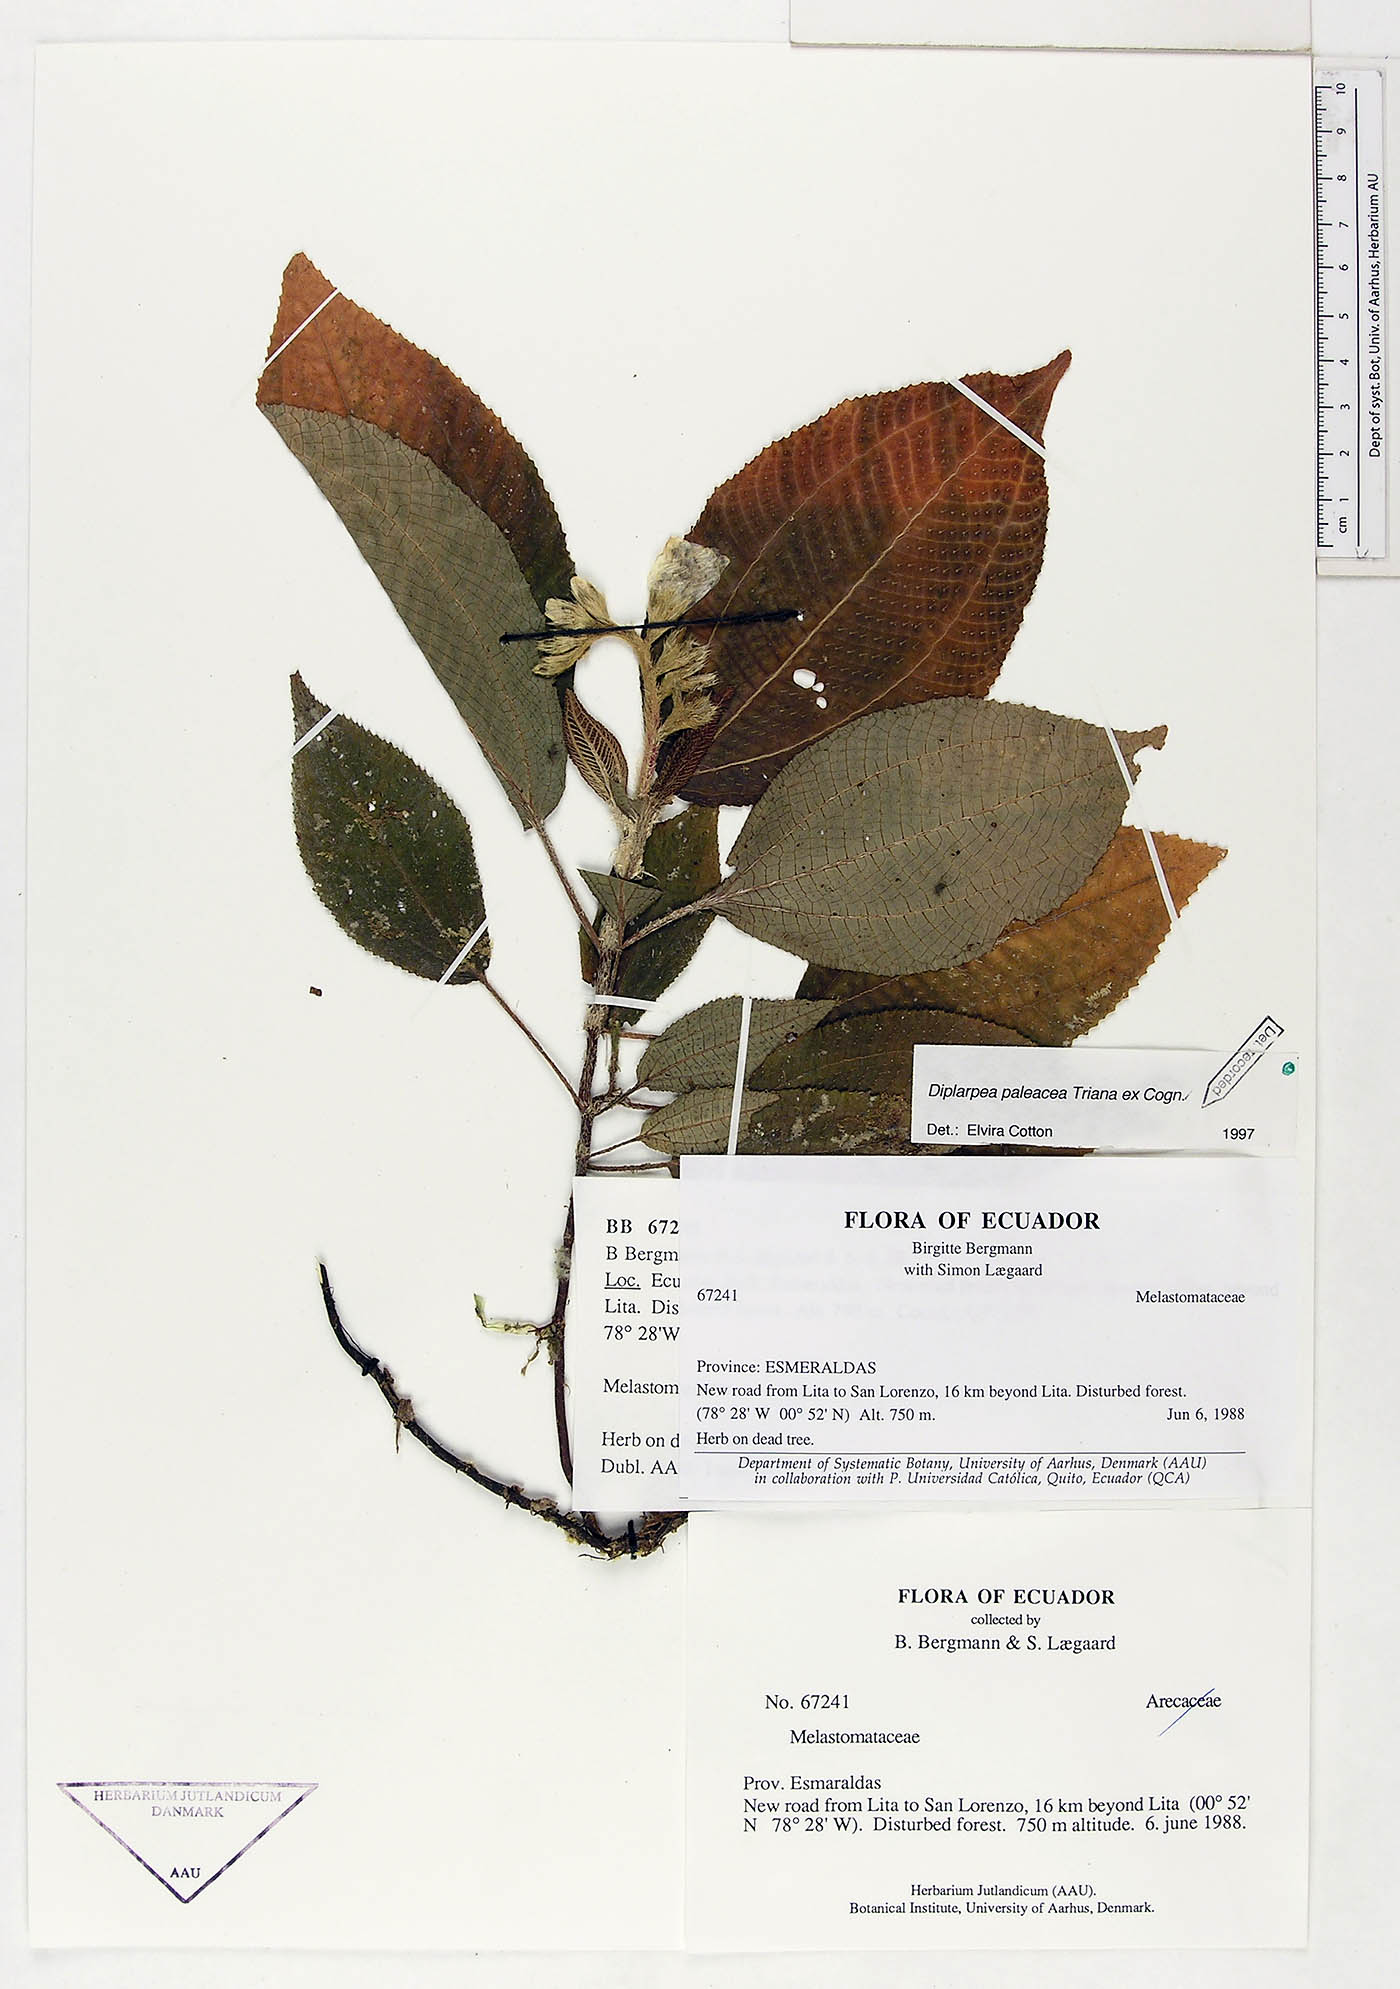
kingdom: Plantae
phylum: Tracheophyta
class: Magnoliopsida
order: Myrtales
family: Melastomataceae
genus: Andesanthus
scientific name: Andesanthus paleaceus
